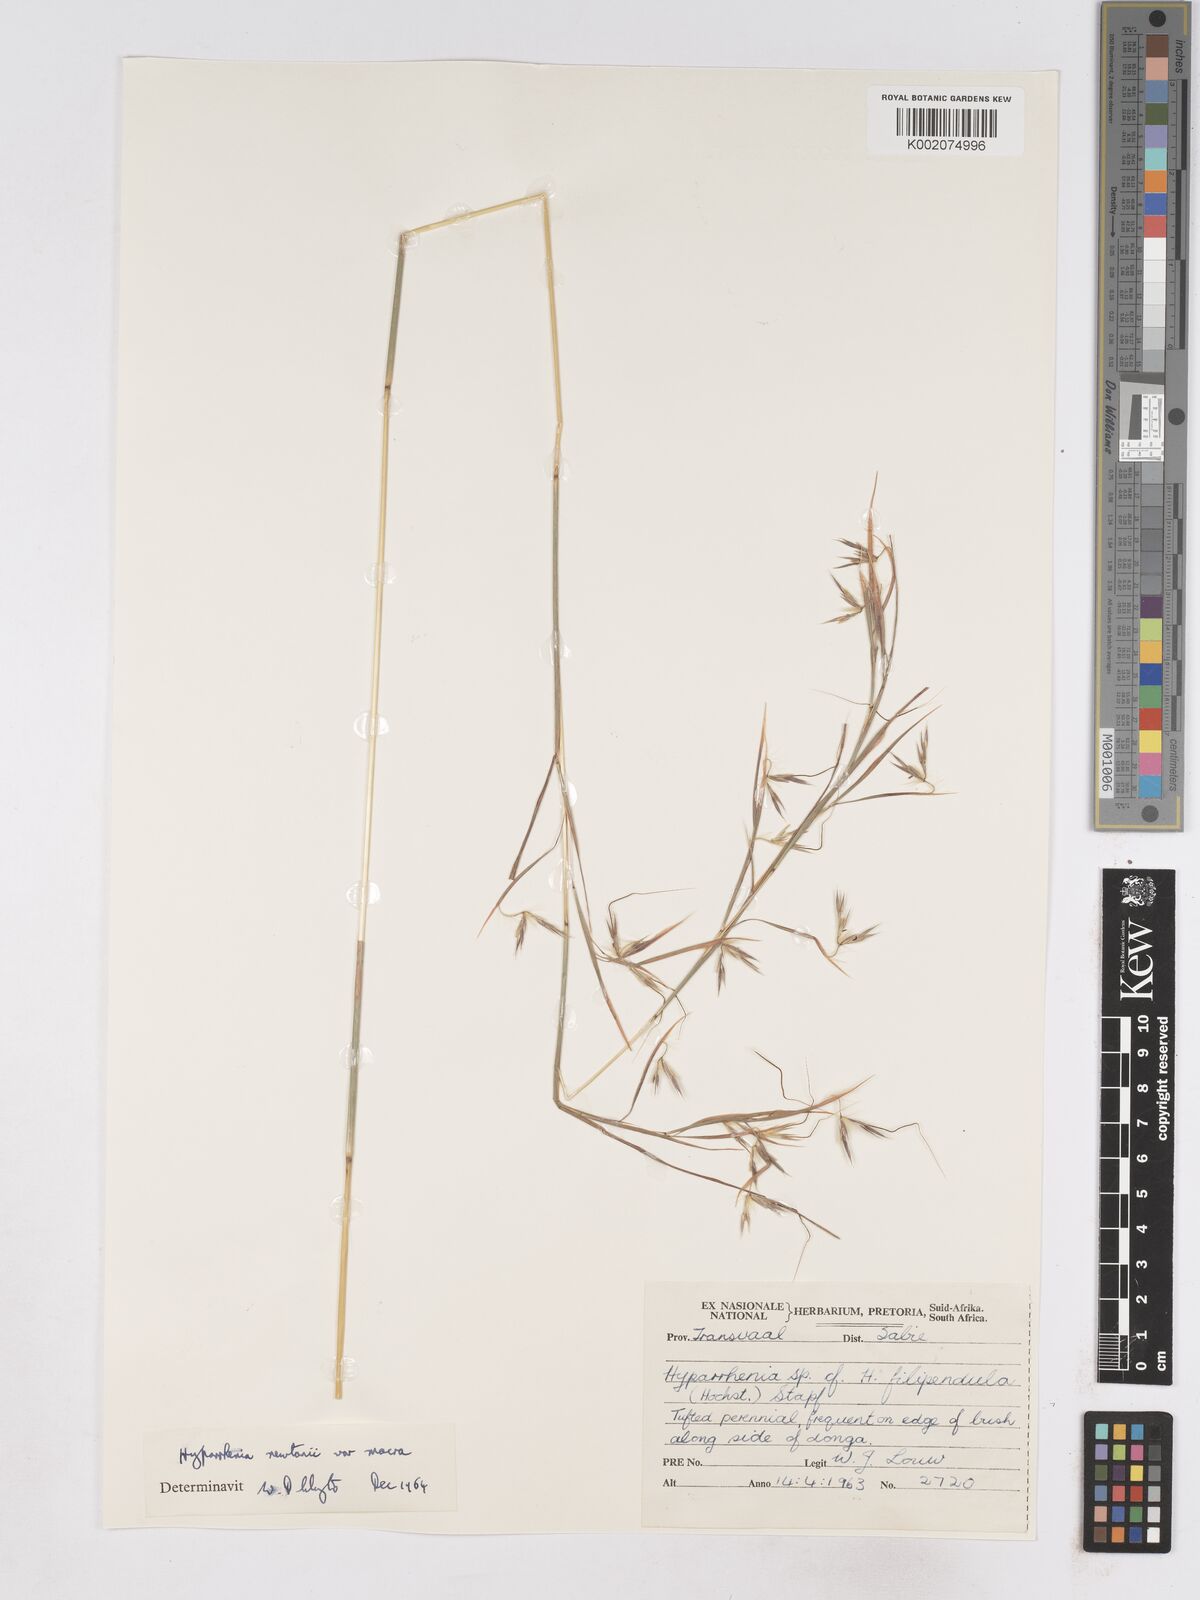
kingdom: Plantae
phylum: Tracheophyta
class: Liliopsida
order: Poales
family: Poaceae
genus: Hyparrhenia
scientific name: Hyparrhenia newtonii
